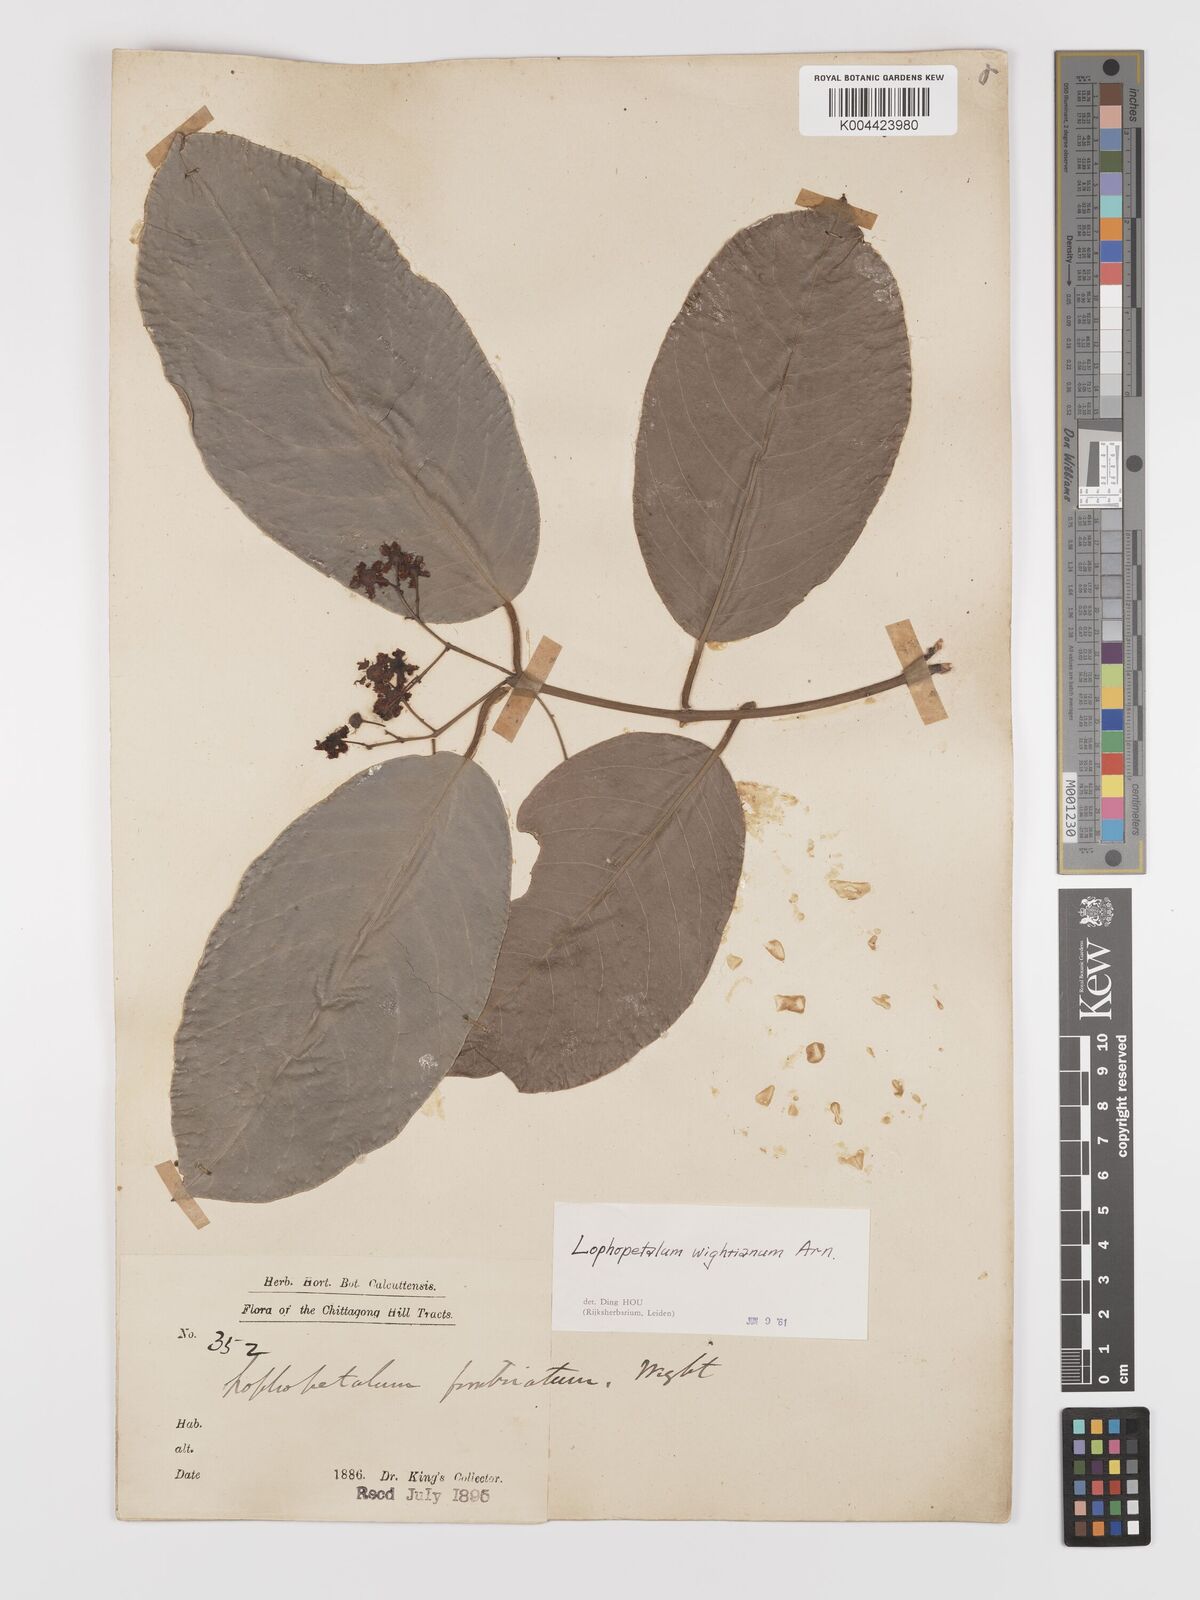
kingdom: Plantae
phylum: Tracheophyta
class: Magnoliopsida
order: Celastrales
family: Celastraceae
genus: Lophopetalum
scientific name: Lophopetalum wightianum
